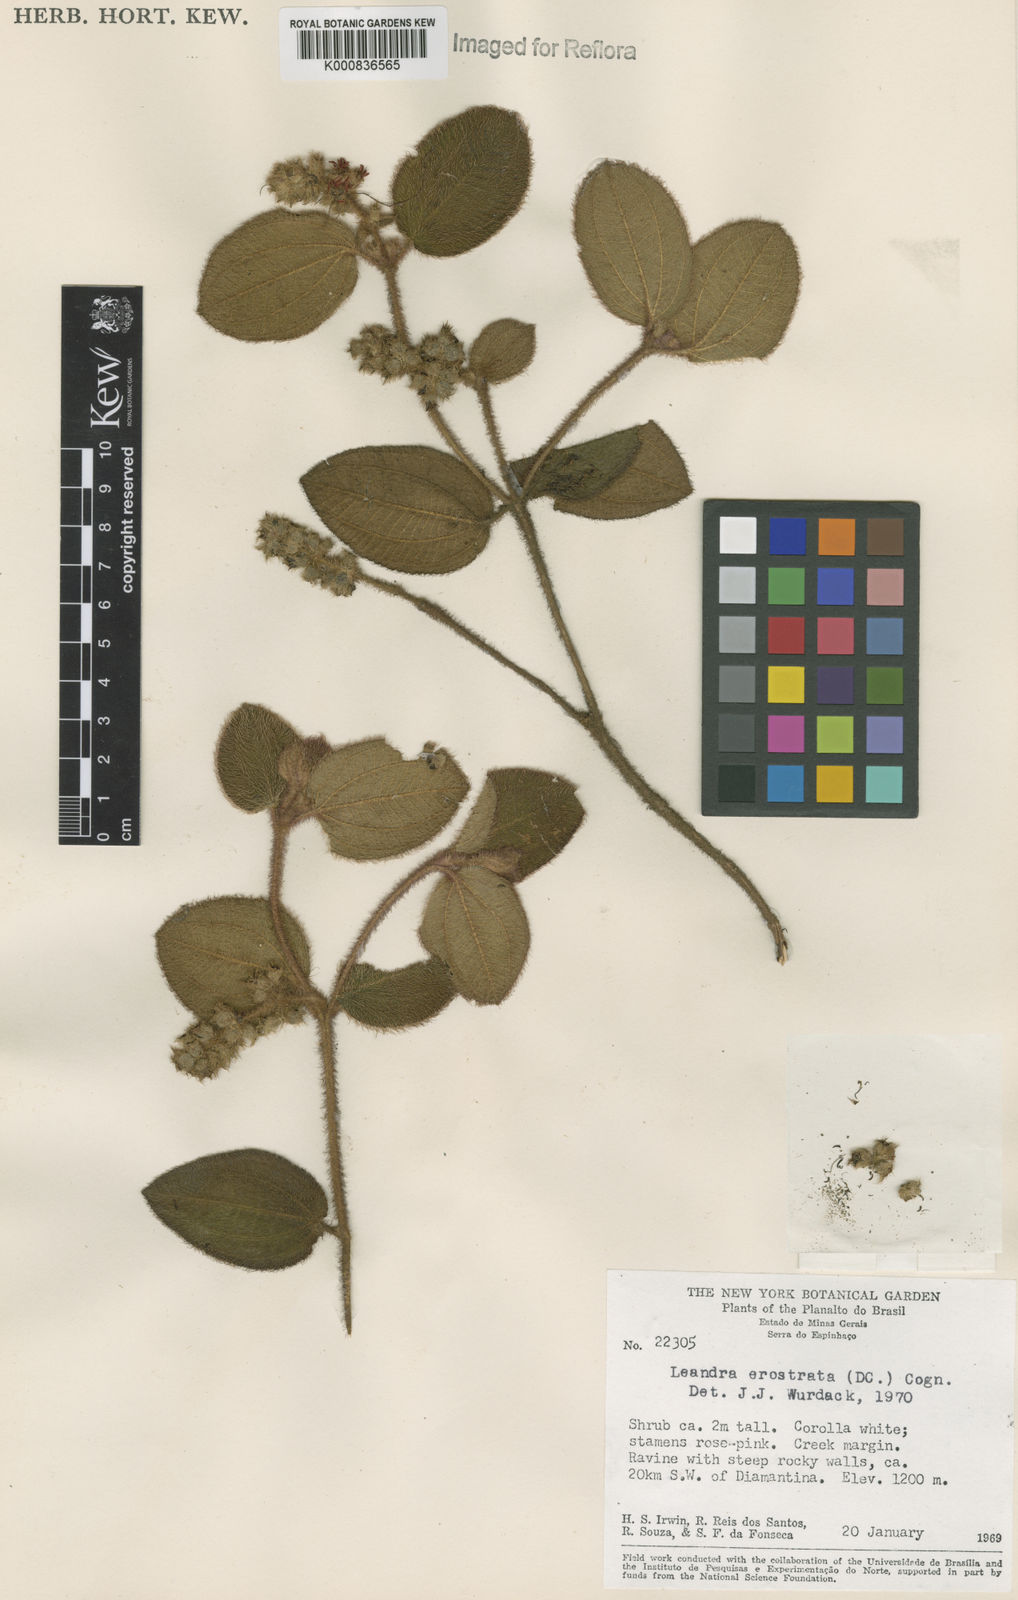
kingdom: Plantae
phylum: Tracheophyta
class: Magnoliopsida
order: Myrtales
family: Melastomataceae
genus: Miconia
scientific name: Miconia erostrata
